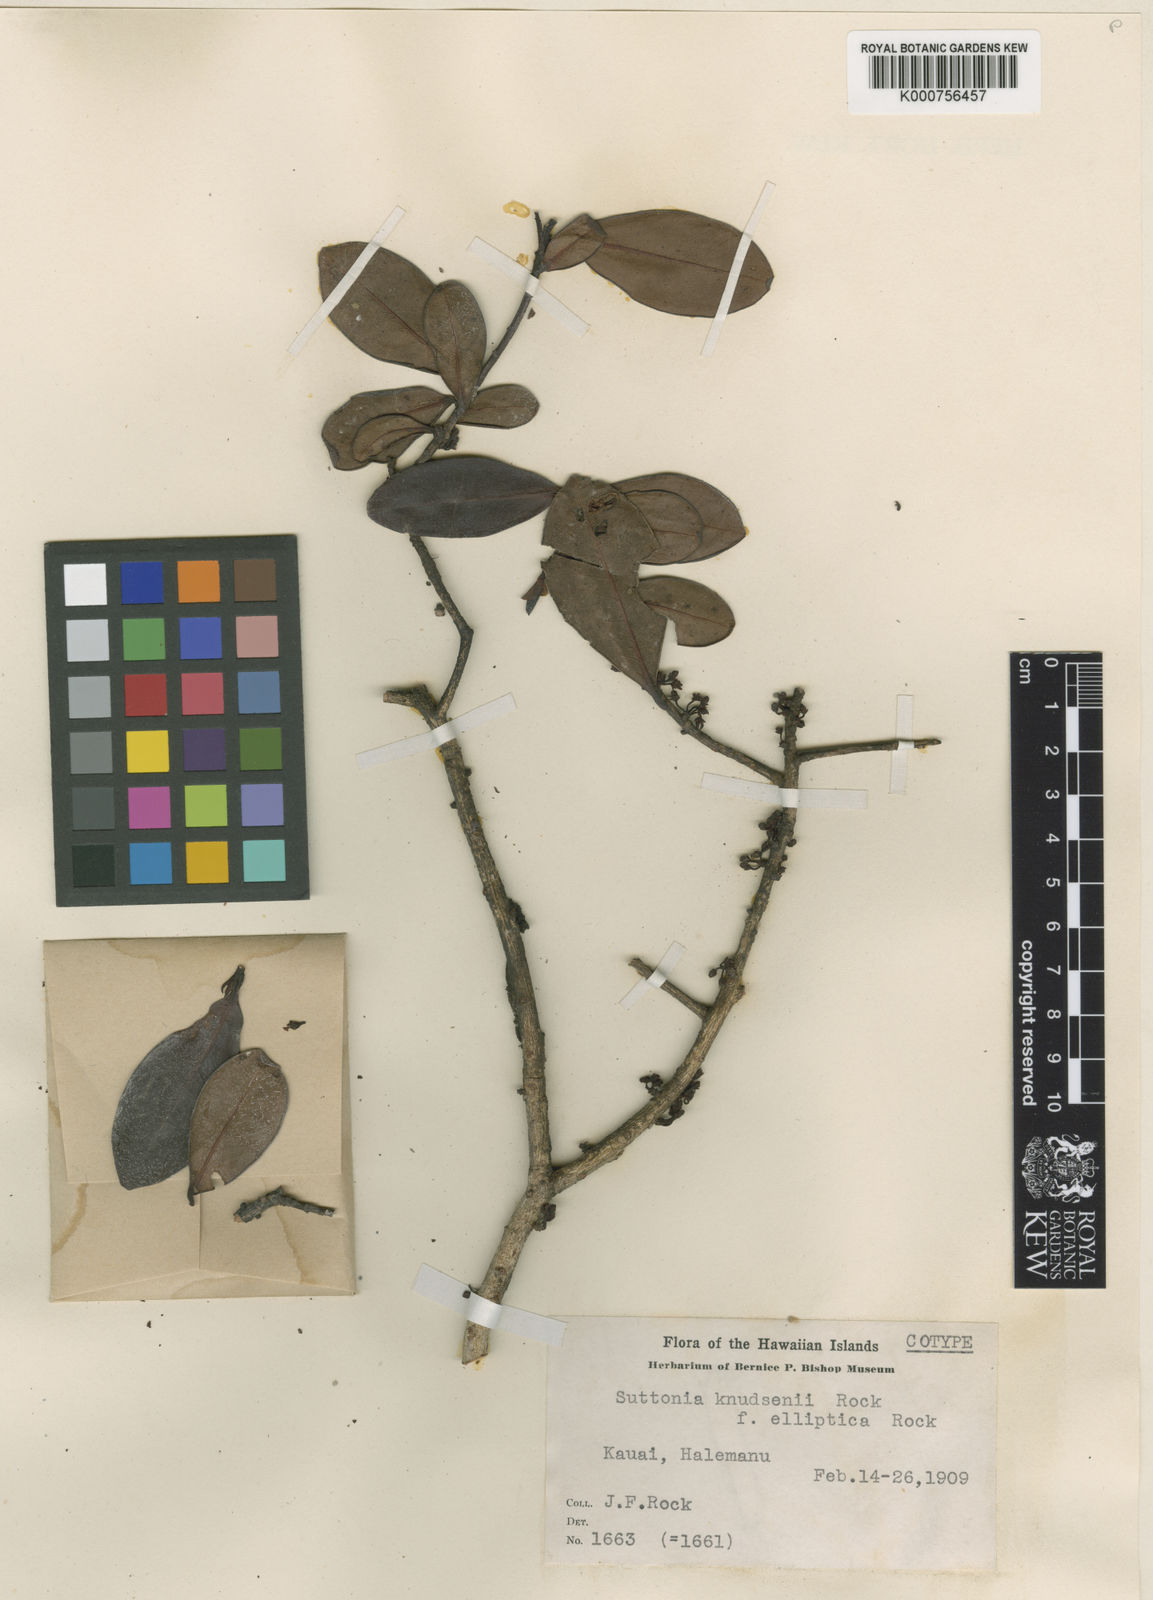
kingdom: Plantae
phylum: Tracheophyta
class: Magnoliopsida
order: Ericales
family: Primulaceae
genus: Myrsine
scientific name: Myrsine knudsenii
